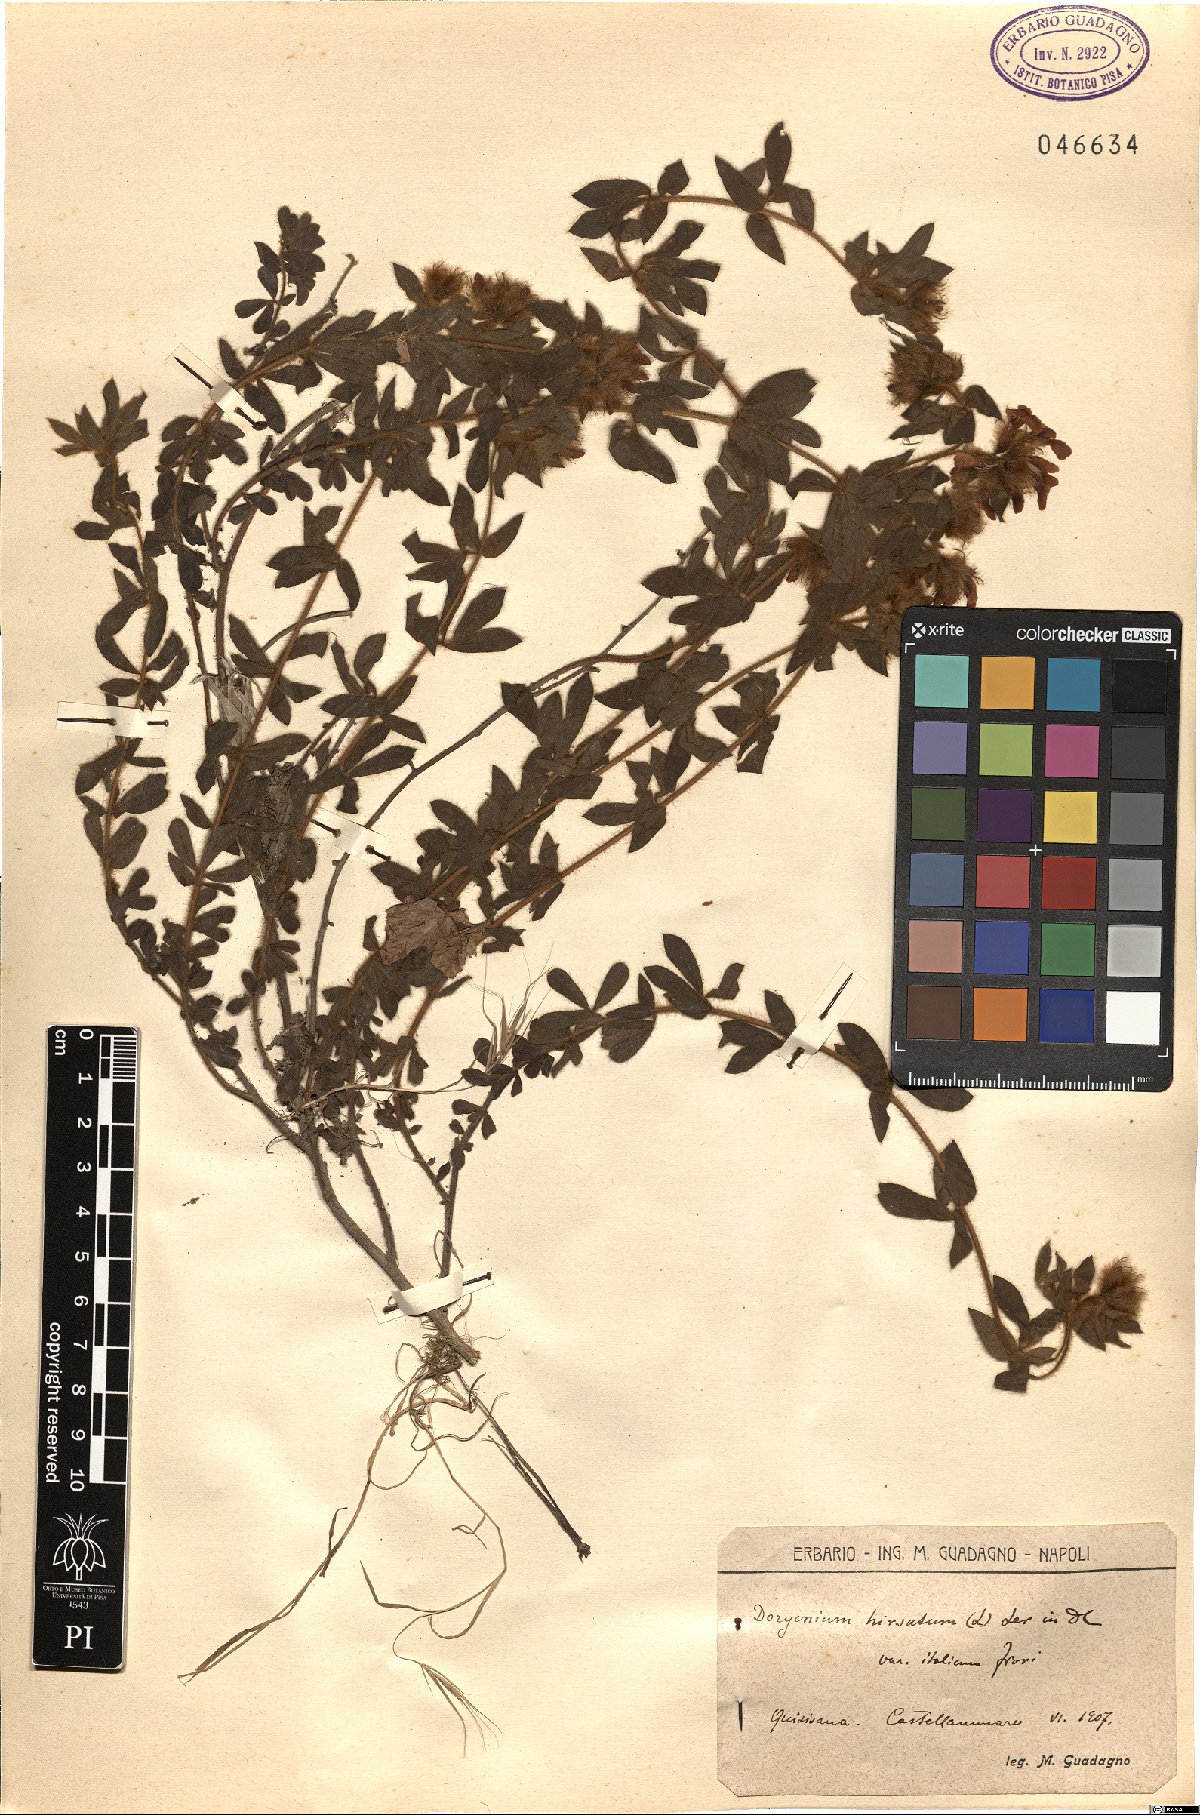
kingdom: Plantae
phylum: Tracheophyta
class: Magnoliopsida
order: Fabales
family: Fabaceae
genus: Lotus
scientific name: Lotus hirsutus
